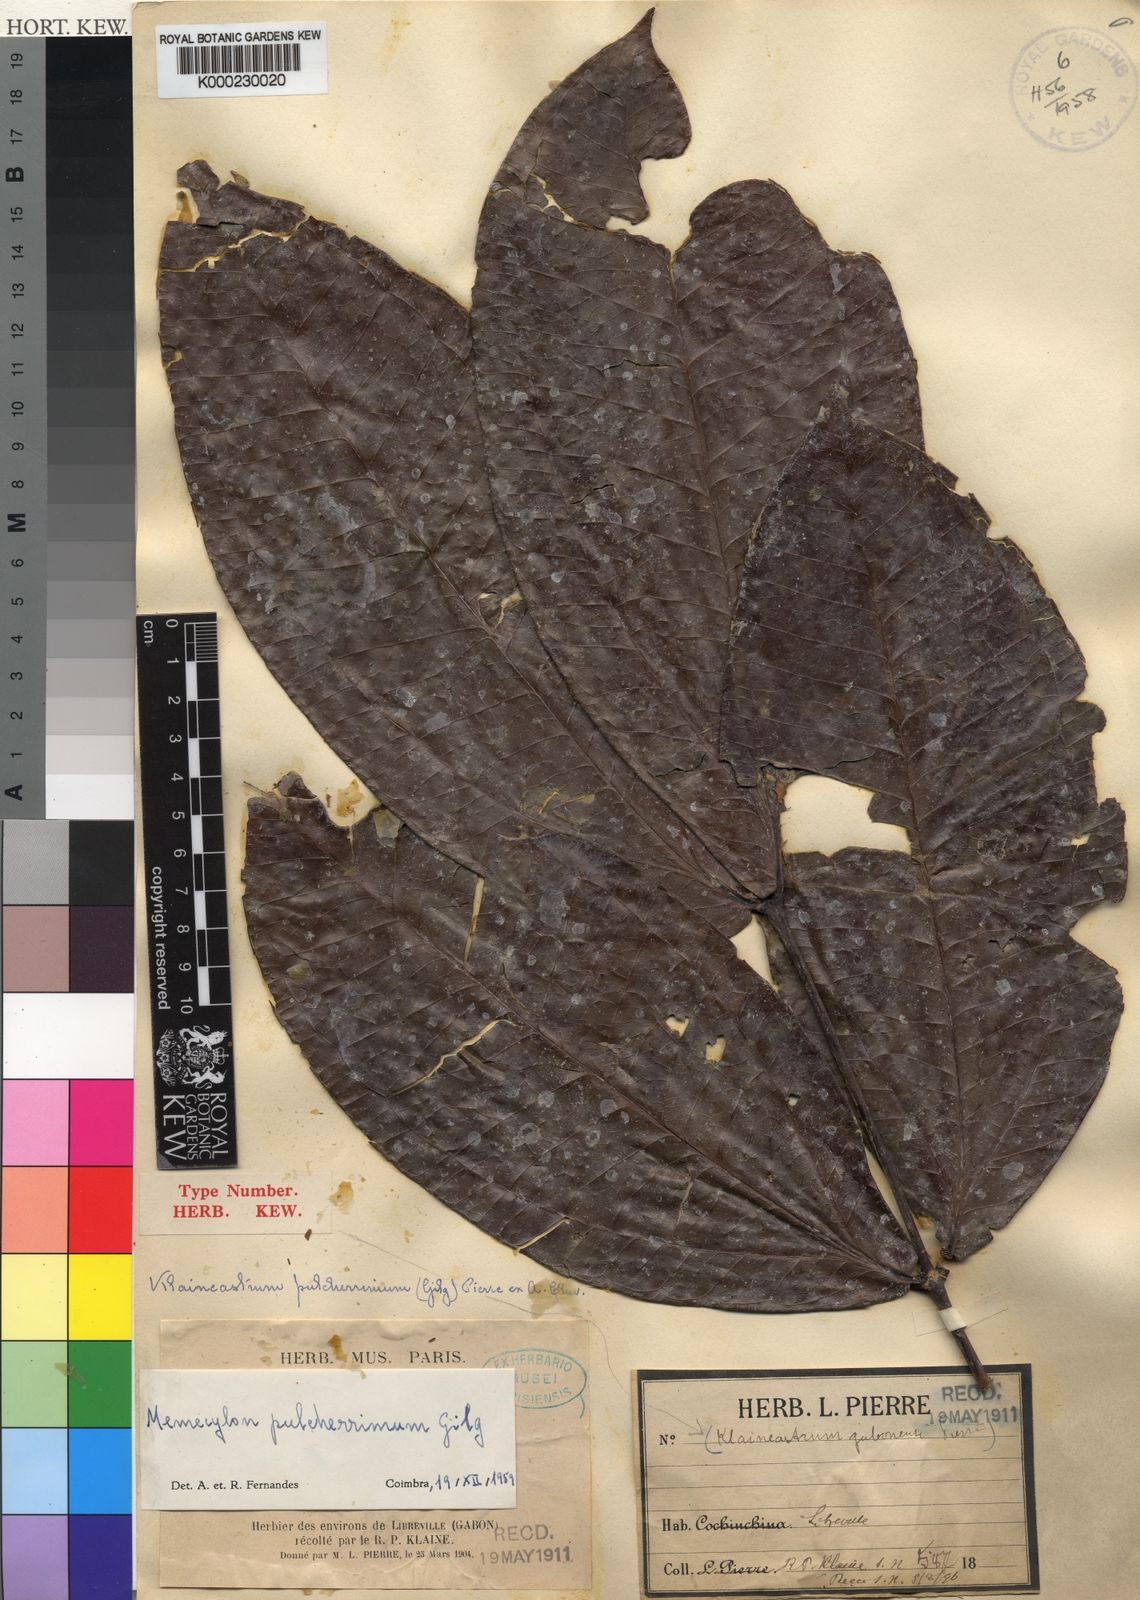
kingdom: Plantae
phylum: Tracheophyta
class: Magnoliopsida
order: Myrtales
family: Melastomataceae
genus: Warneckea
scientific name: Warneckea
